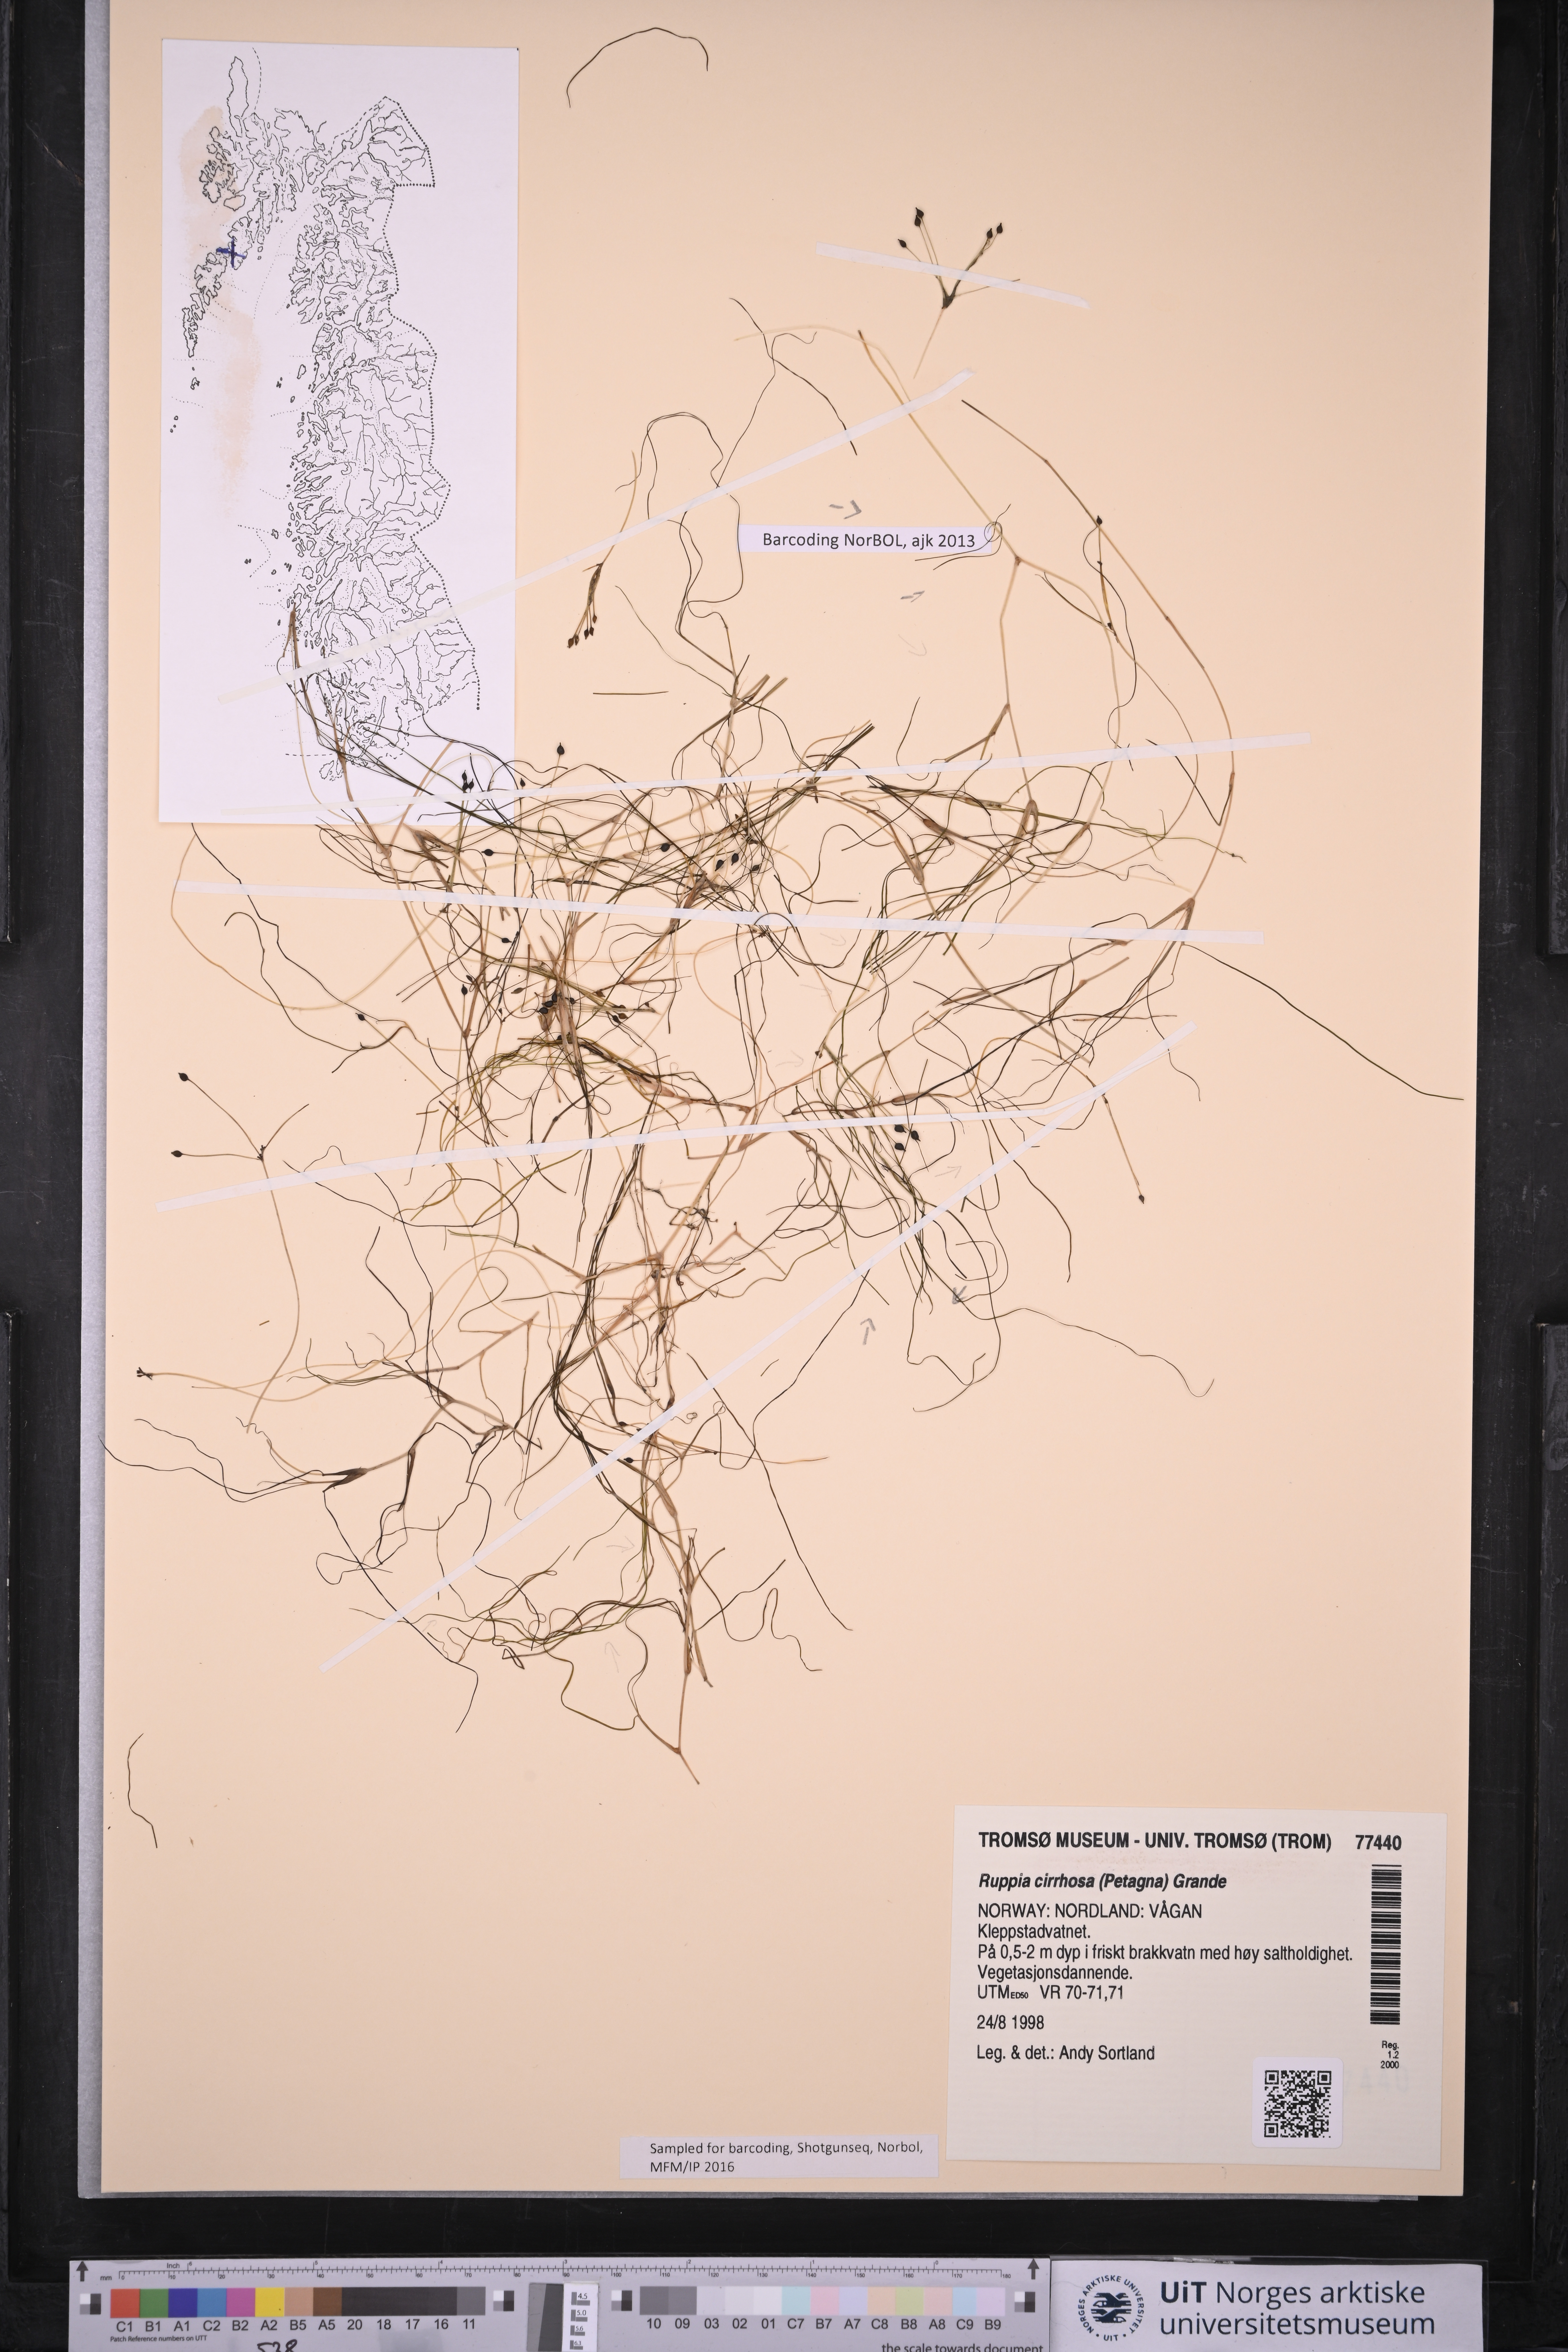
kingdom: Plantae
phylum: Tracheophyta
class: Liliopsida
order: Alismatales
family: Ruppiaceae
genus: Ruppia
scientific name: Ruppia cirrhosa
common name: Spiral tasselweed
